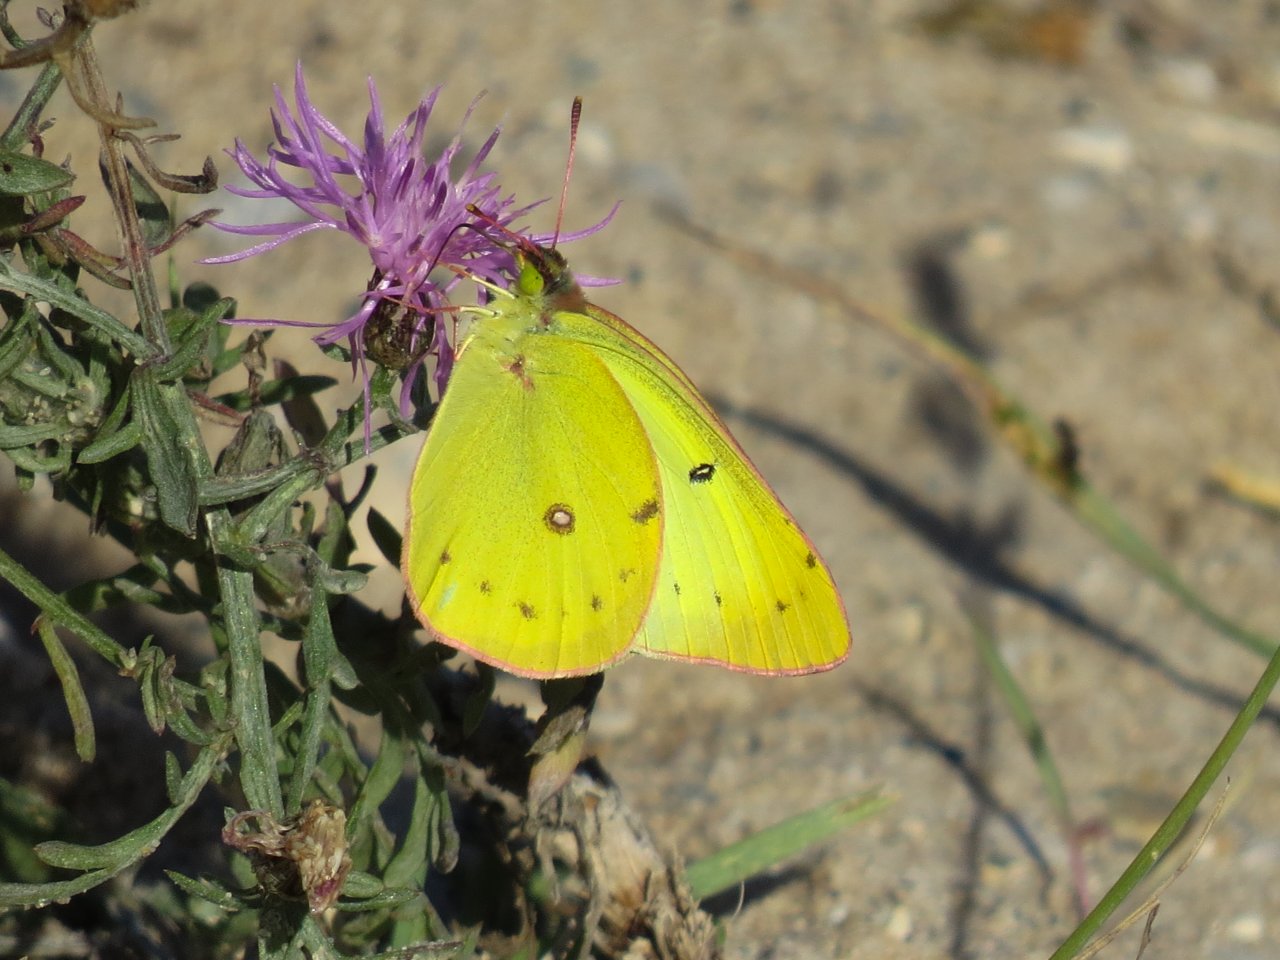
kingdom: Animalia
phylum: Arthropoda
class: Insecta
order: Lepidoptera
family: Pieridae
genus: Colias
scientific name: Colias interior
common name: Pink-edged Sulphur
